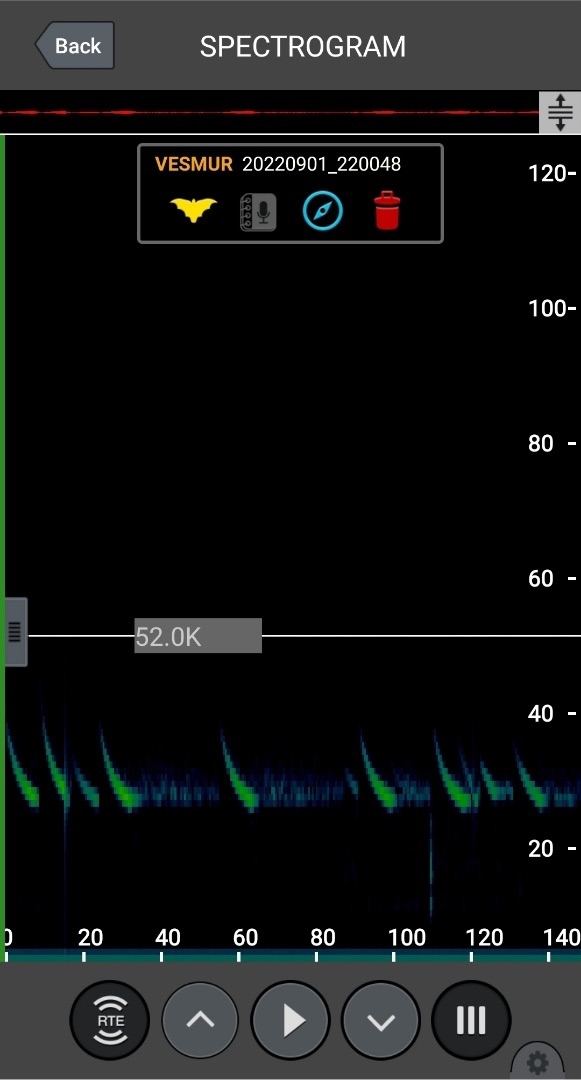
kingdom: Animalia
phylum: Chordata
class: Mammalia
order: Chiroptera
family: Vespertilionidae
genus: Vespertilio
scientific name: Vespertilio murinus
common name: Skimmelflagermus
